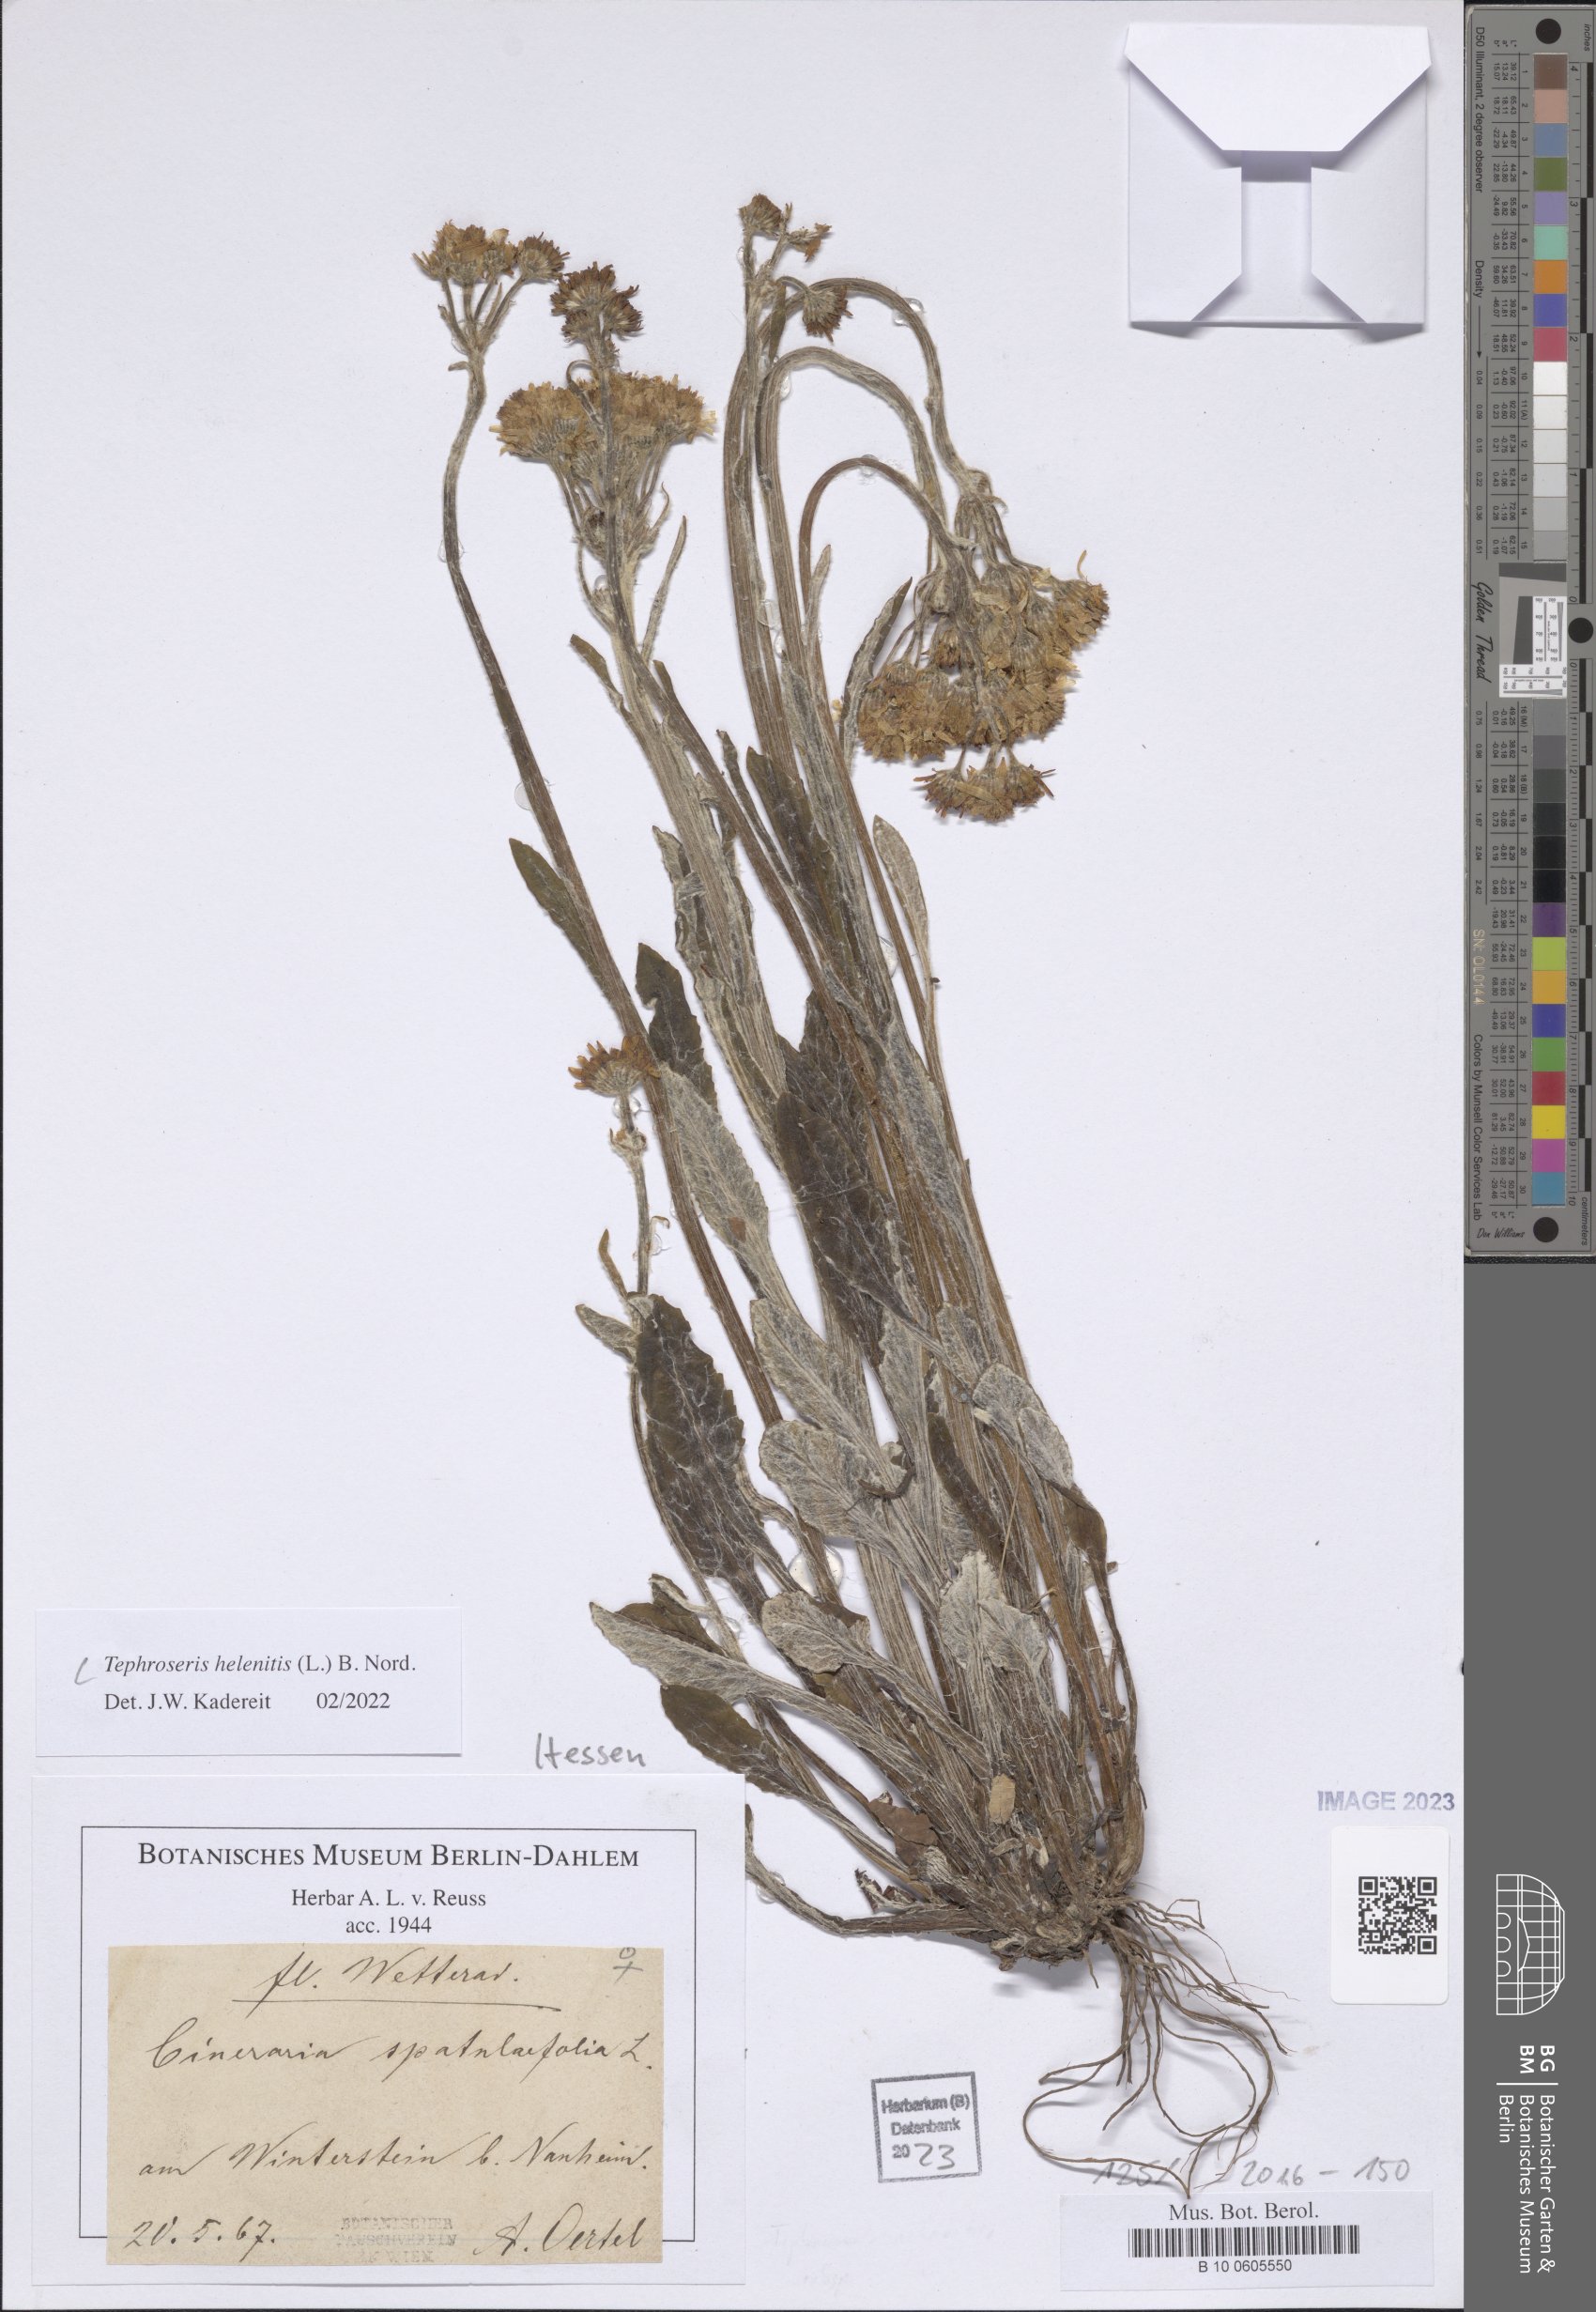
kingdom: Plantae
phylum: Tracheophyta
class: Magnoliopsida
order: Asterales
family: Asteraceae
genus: Tephroseris
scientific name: Tephroseris helenitis
